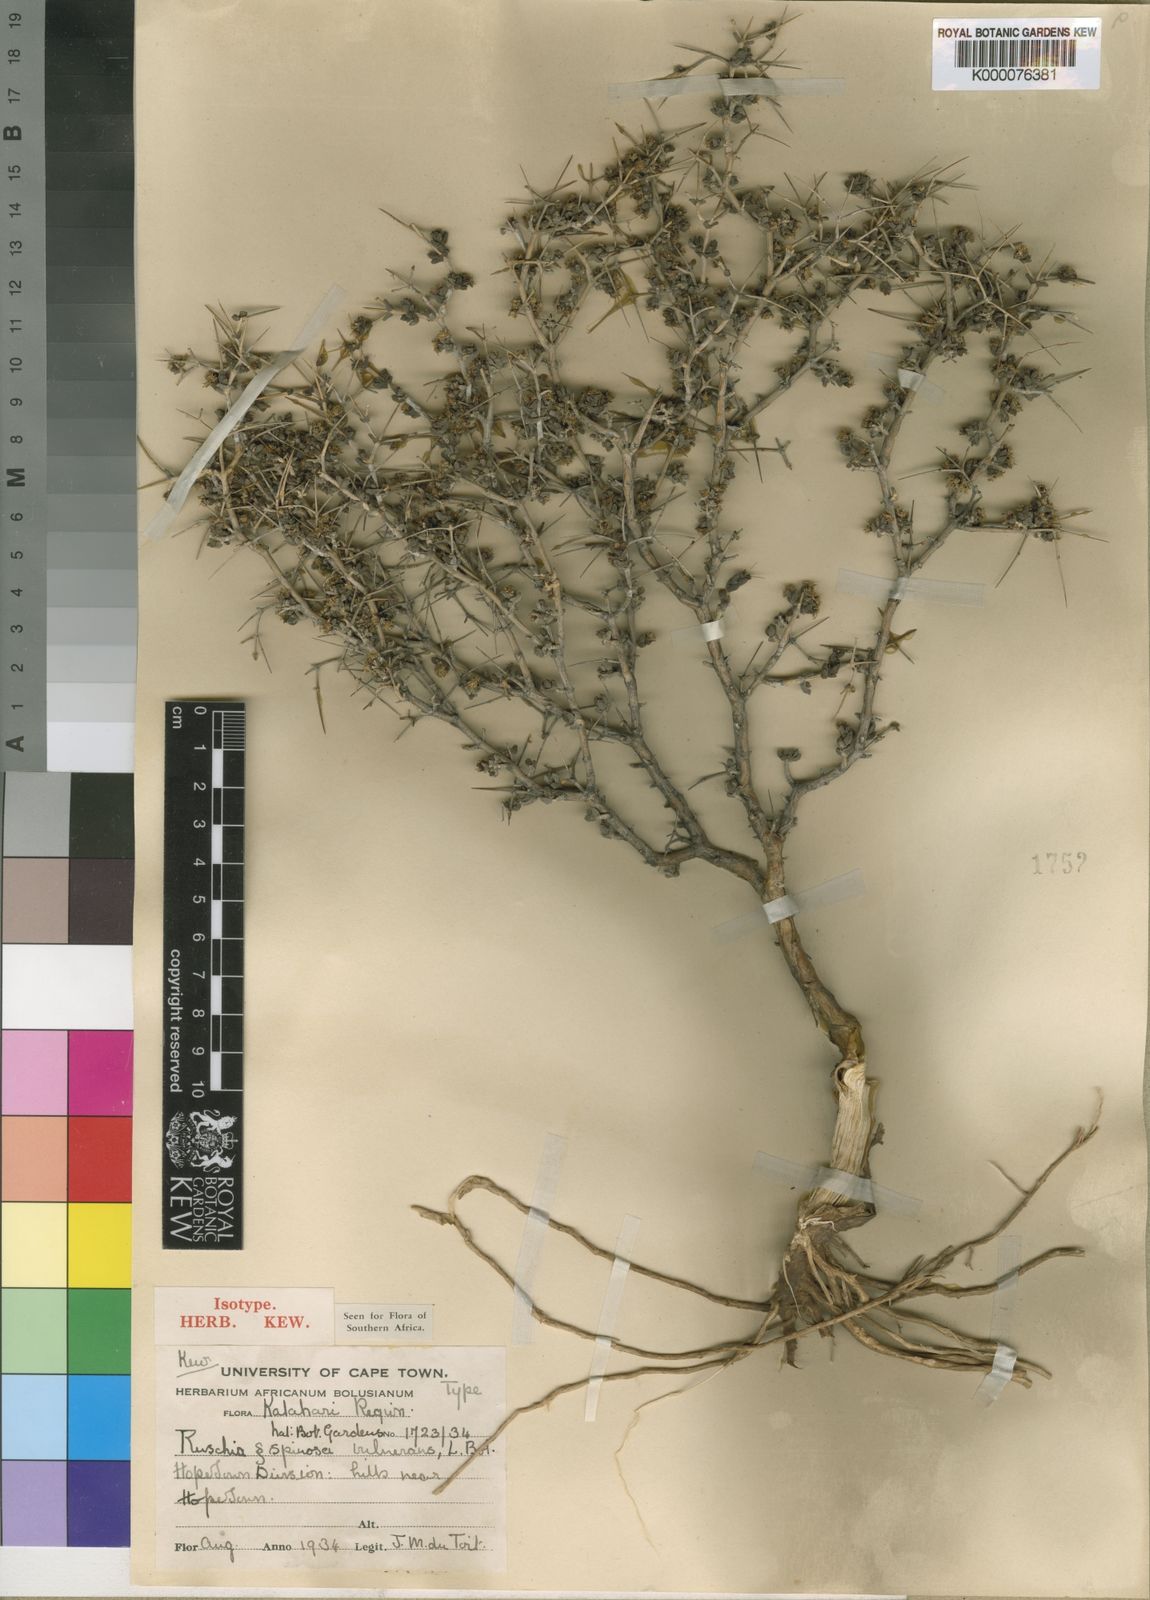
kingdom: Plantae
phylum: Tracheophyta
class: Magnoliopsida
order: Caryophyllales
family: Aizoaceae
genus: Ruschia
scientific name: Ruschia divaricata
